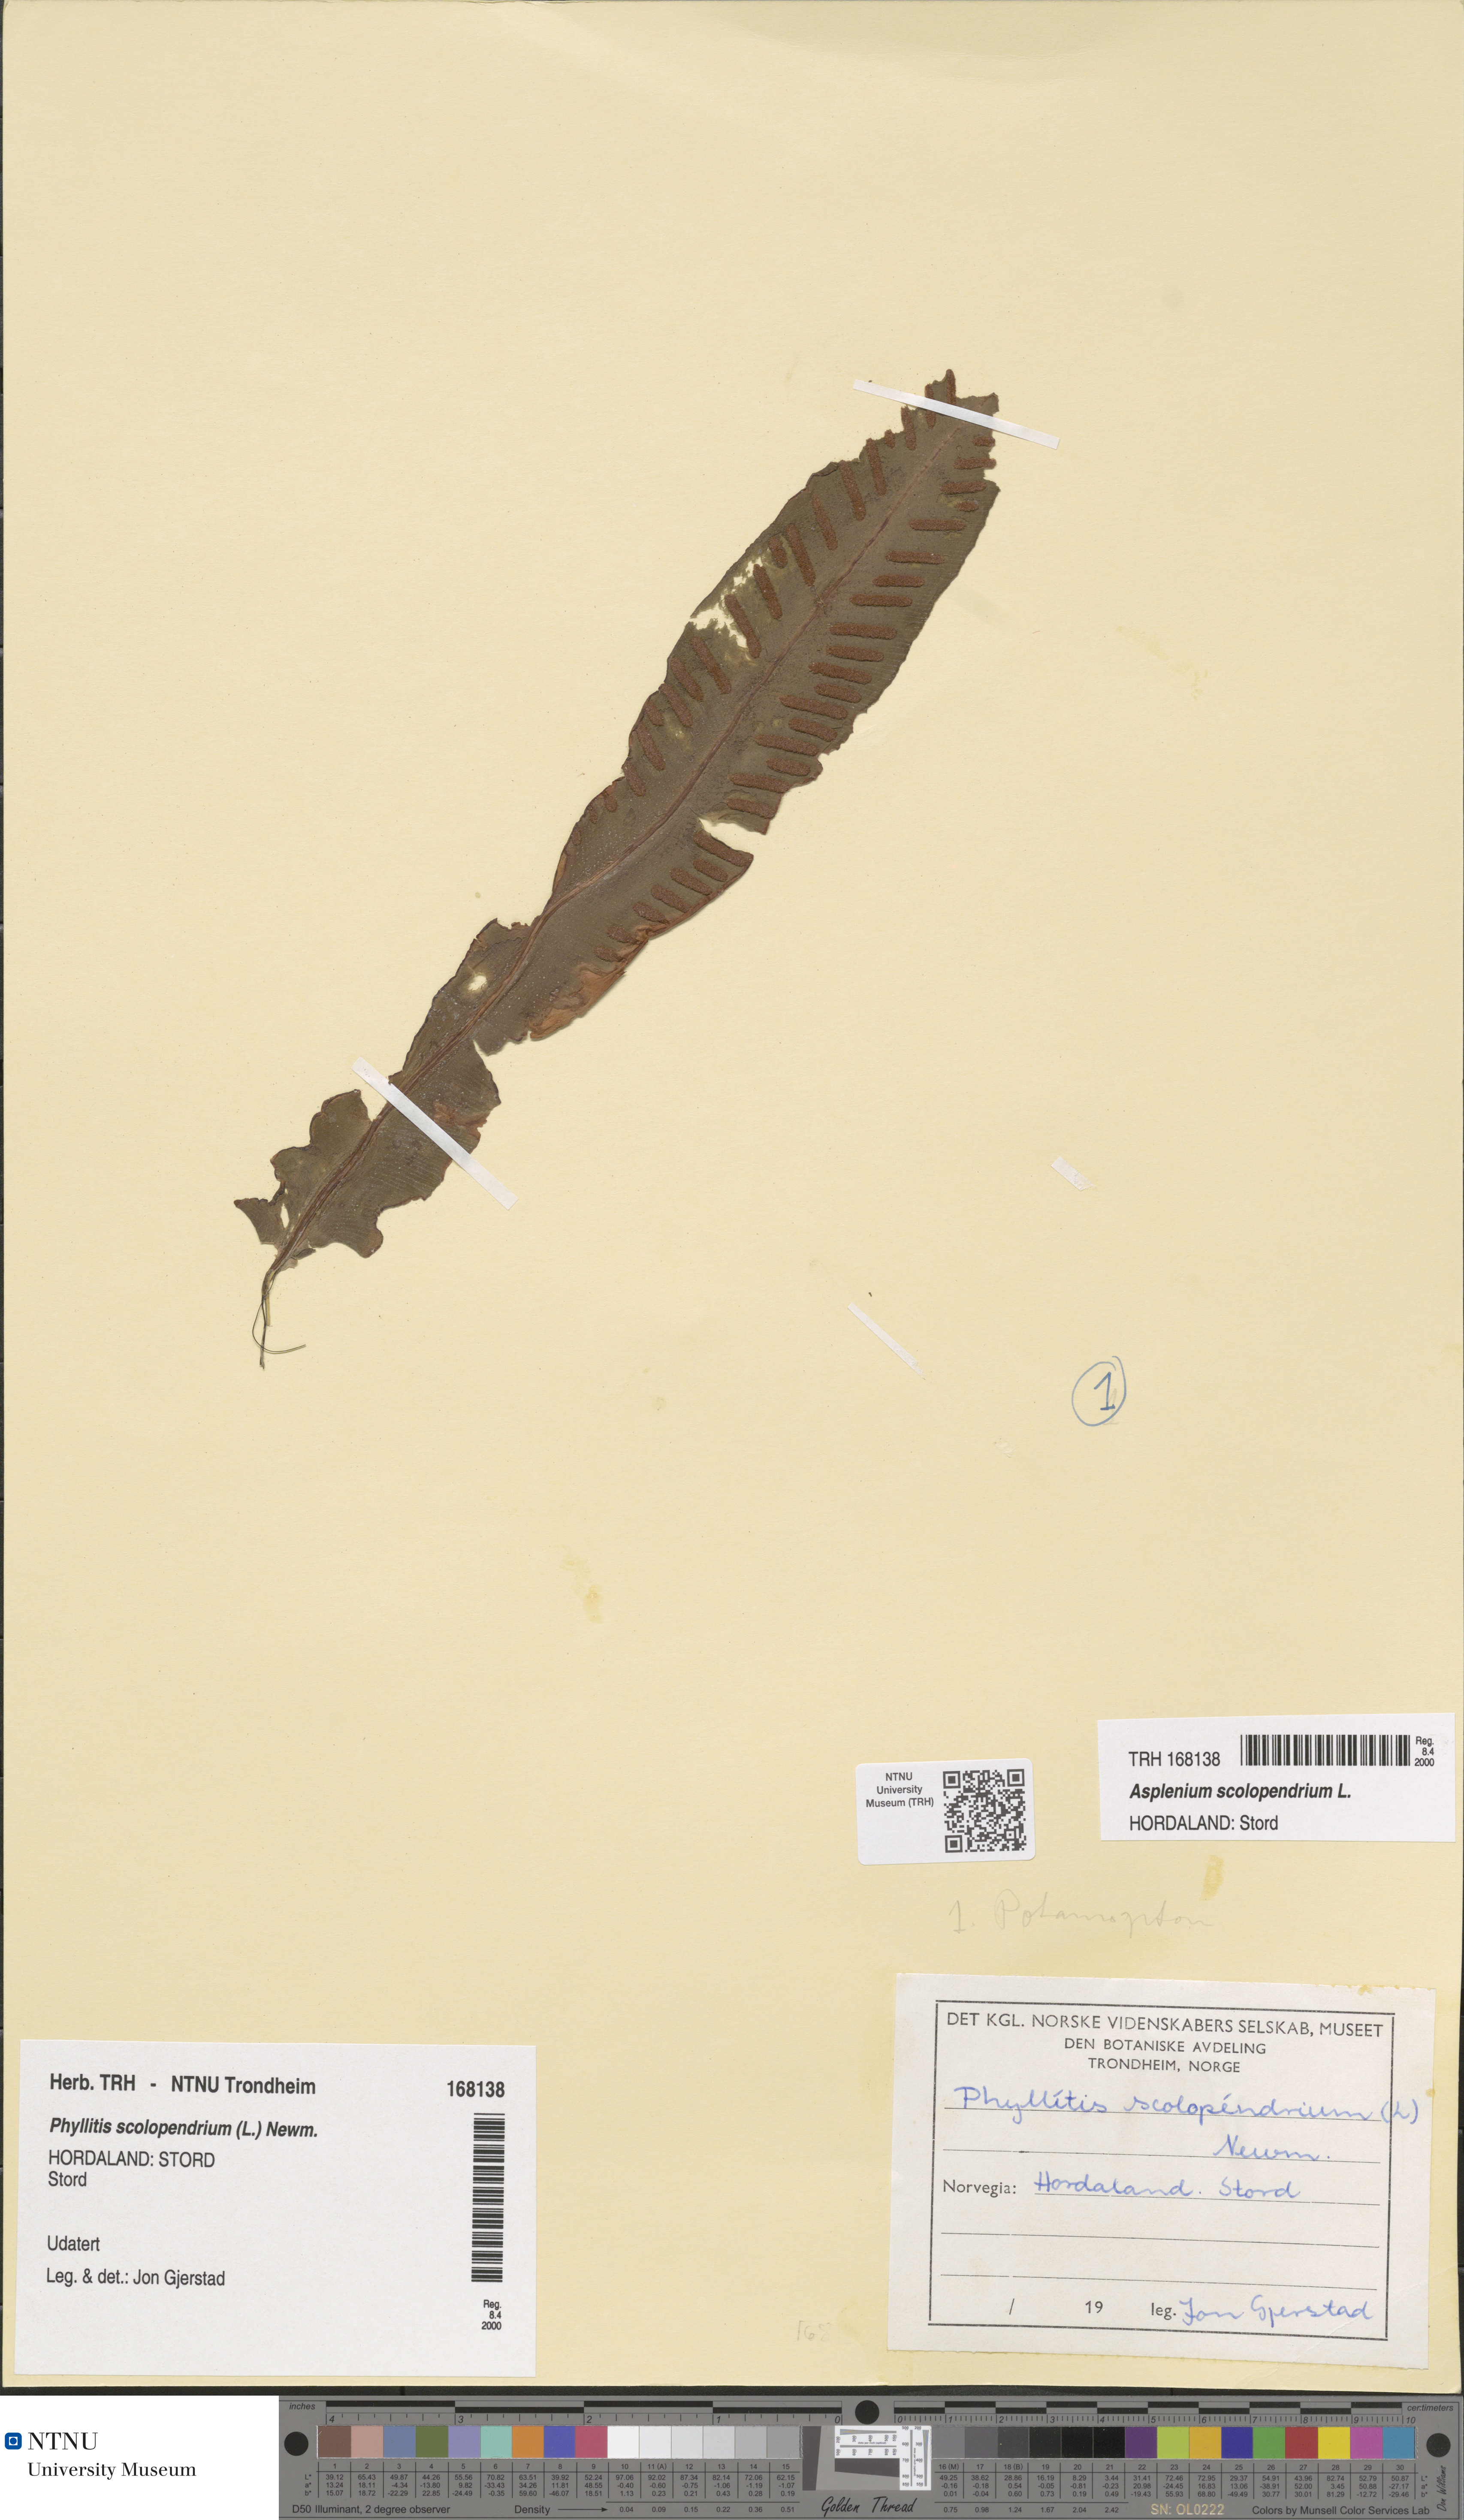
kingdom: Plantae
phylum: Tracheophyta
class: Polypodiopsida
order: Polypodiales
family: Aspleniaceae
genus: Asplenium
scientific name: Asplenium scolopendrium
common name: Hart's-tongue fern
